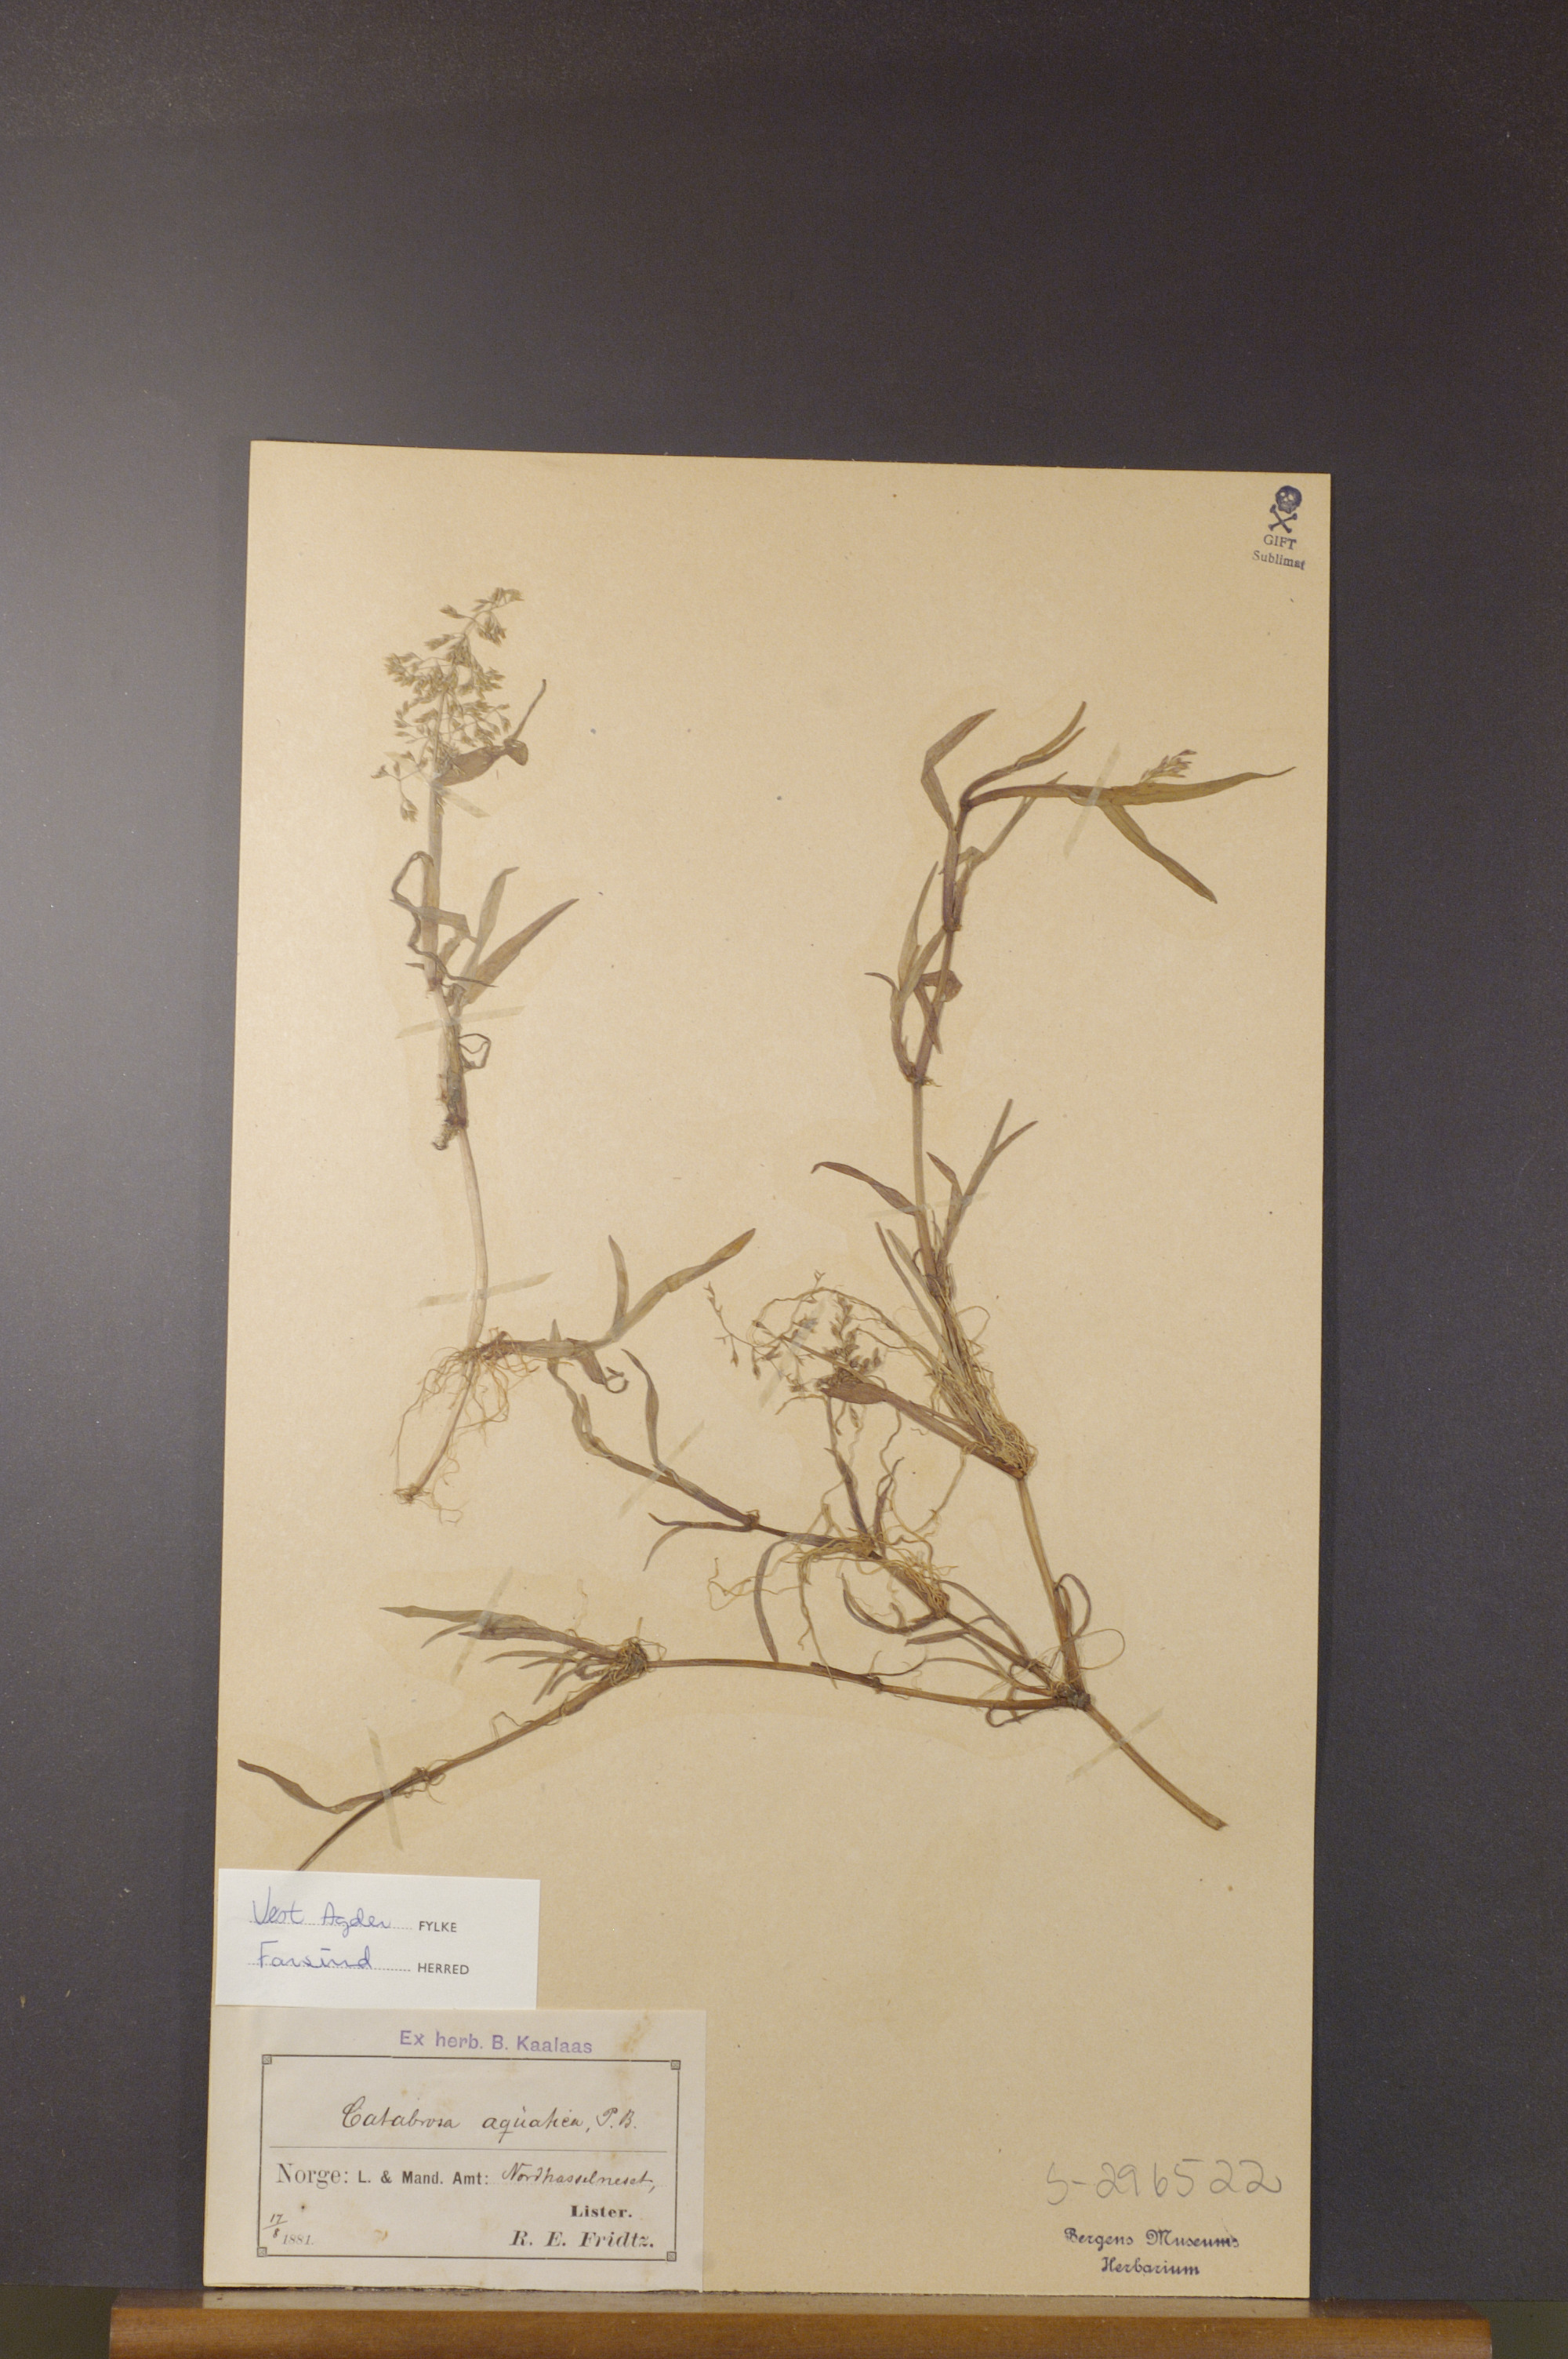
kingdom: Plantae
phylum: Tracheophyta
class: Liliopsida
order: Poales
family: Poaceae
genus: Catabrosa
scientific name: Catabrosa aquatica
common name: Whorl-grass
